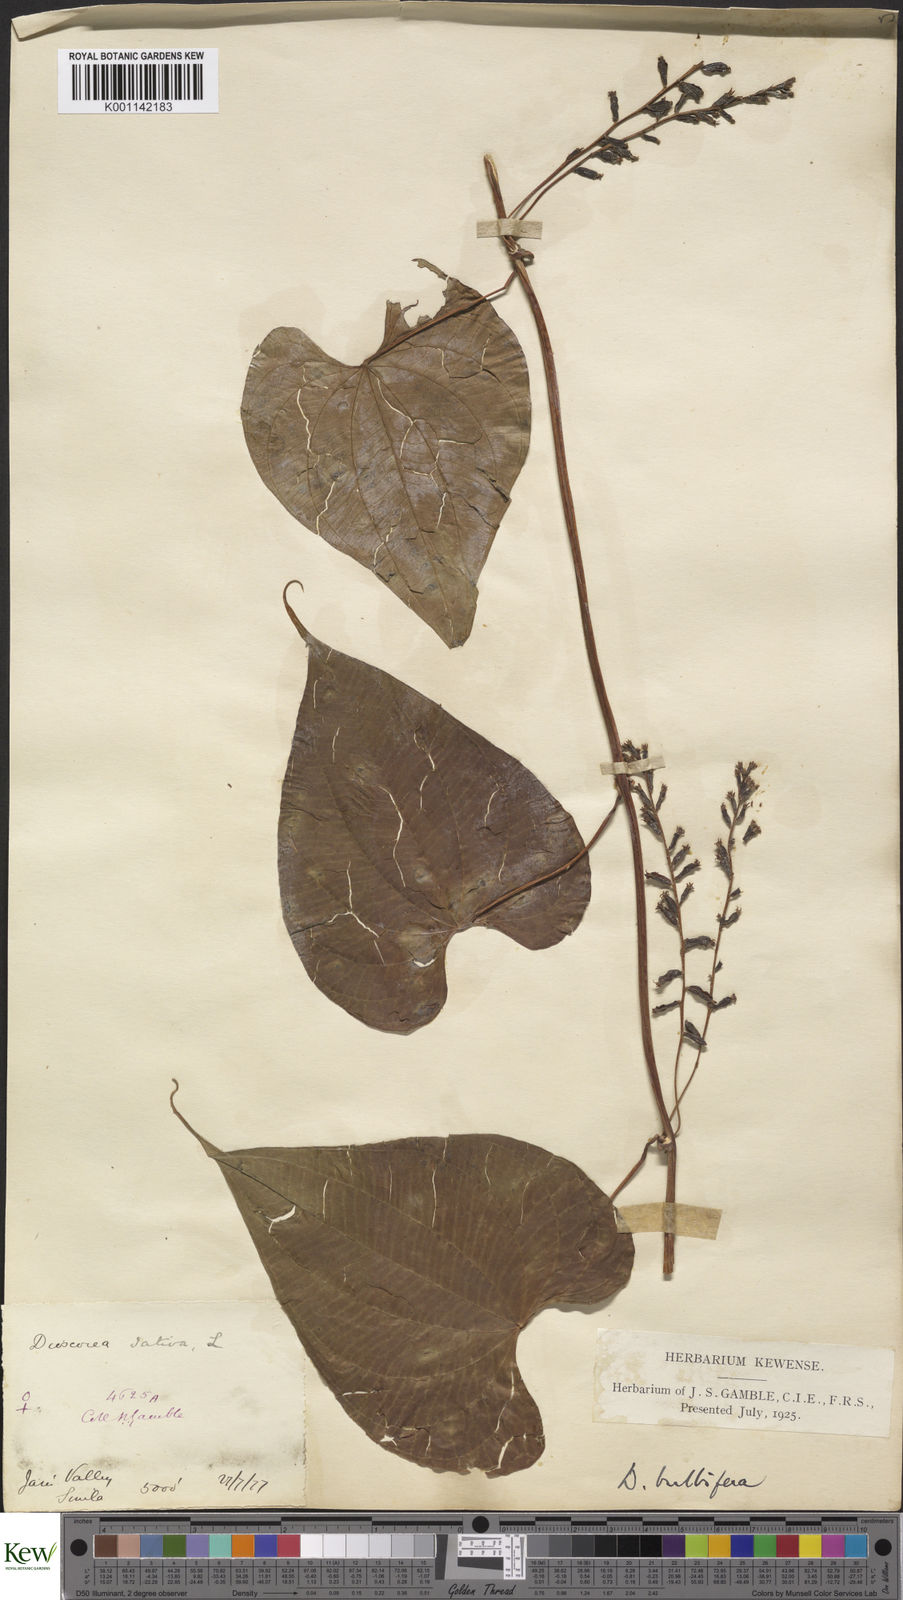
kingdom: Plantae
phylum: Tracheophyta
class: Liliopsida
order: Dioscoreales
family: Dioscoreaceae
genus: Dioscorea
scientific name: Dioscorea bulbifera
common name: Air yam
